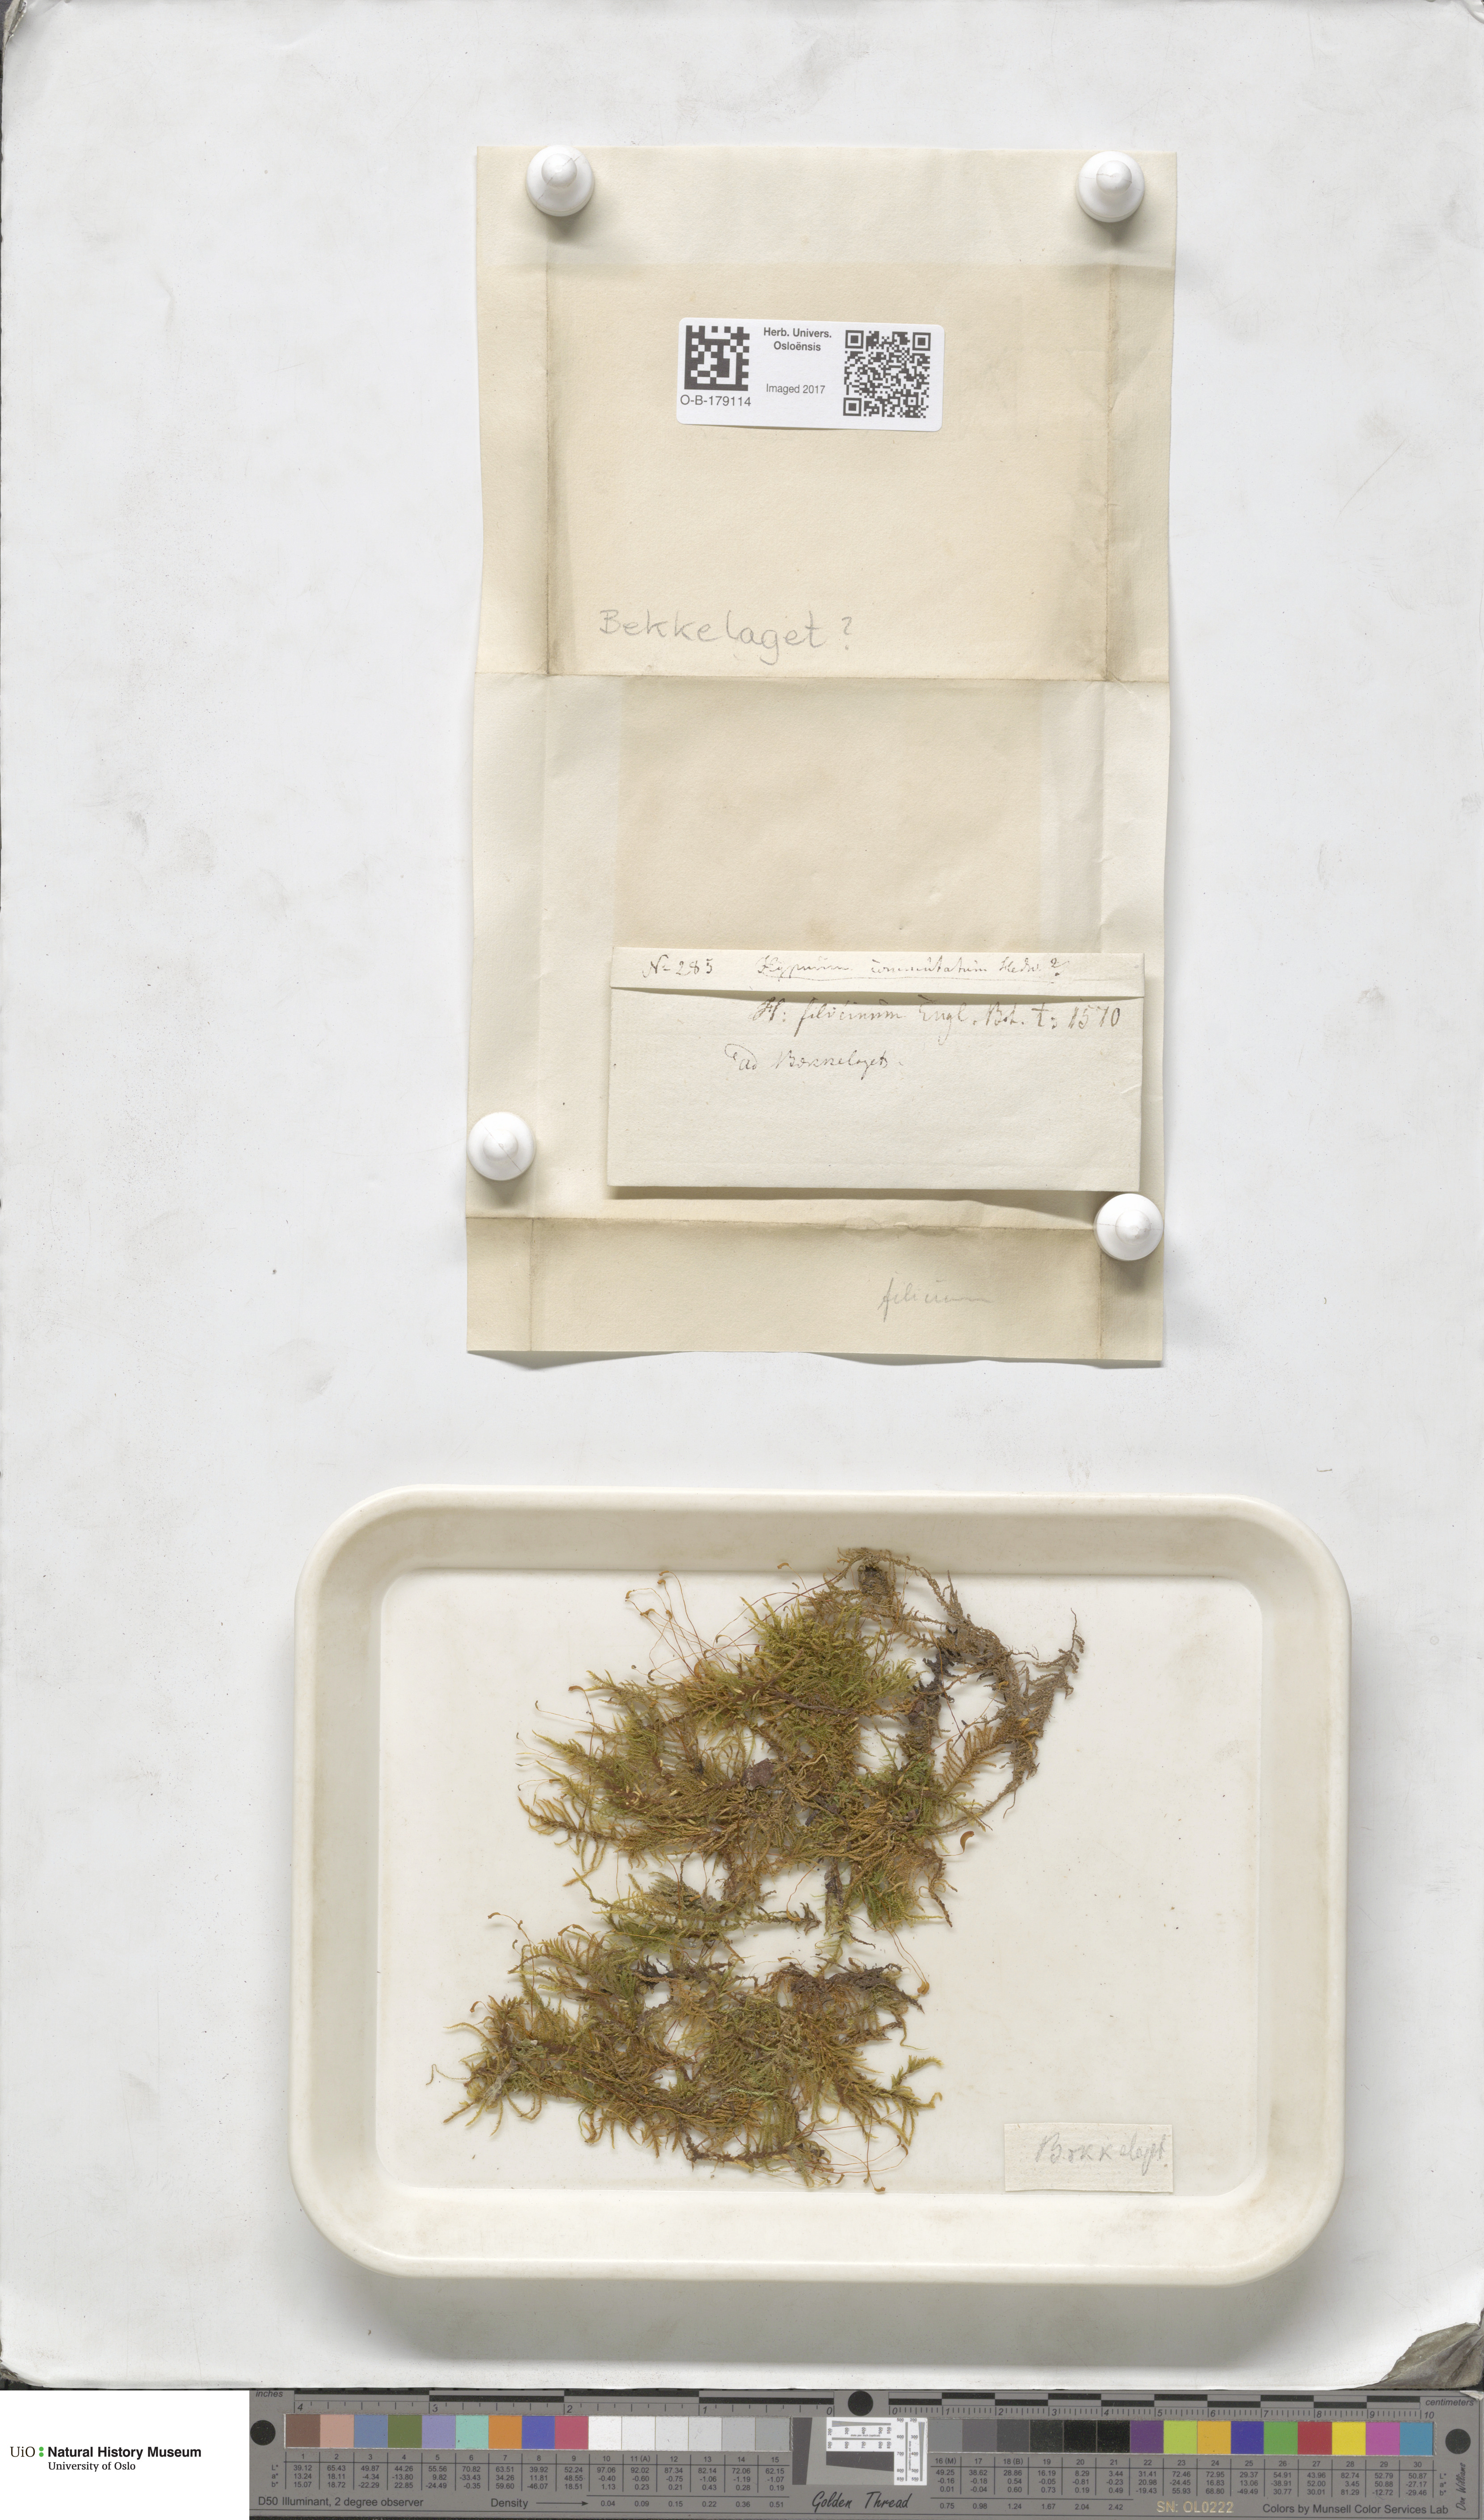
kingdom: Plantae
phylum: Bryophyta
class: Bryopsida
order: Hypnales
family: Amblystegiaceae
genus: Cratoneuron
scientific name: Cratoneuron filicinum
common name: Fern-leaved hook moss
